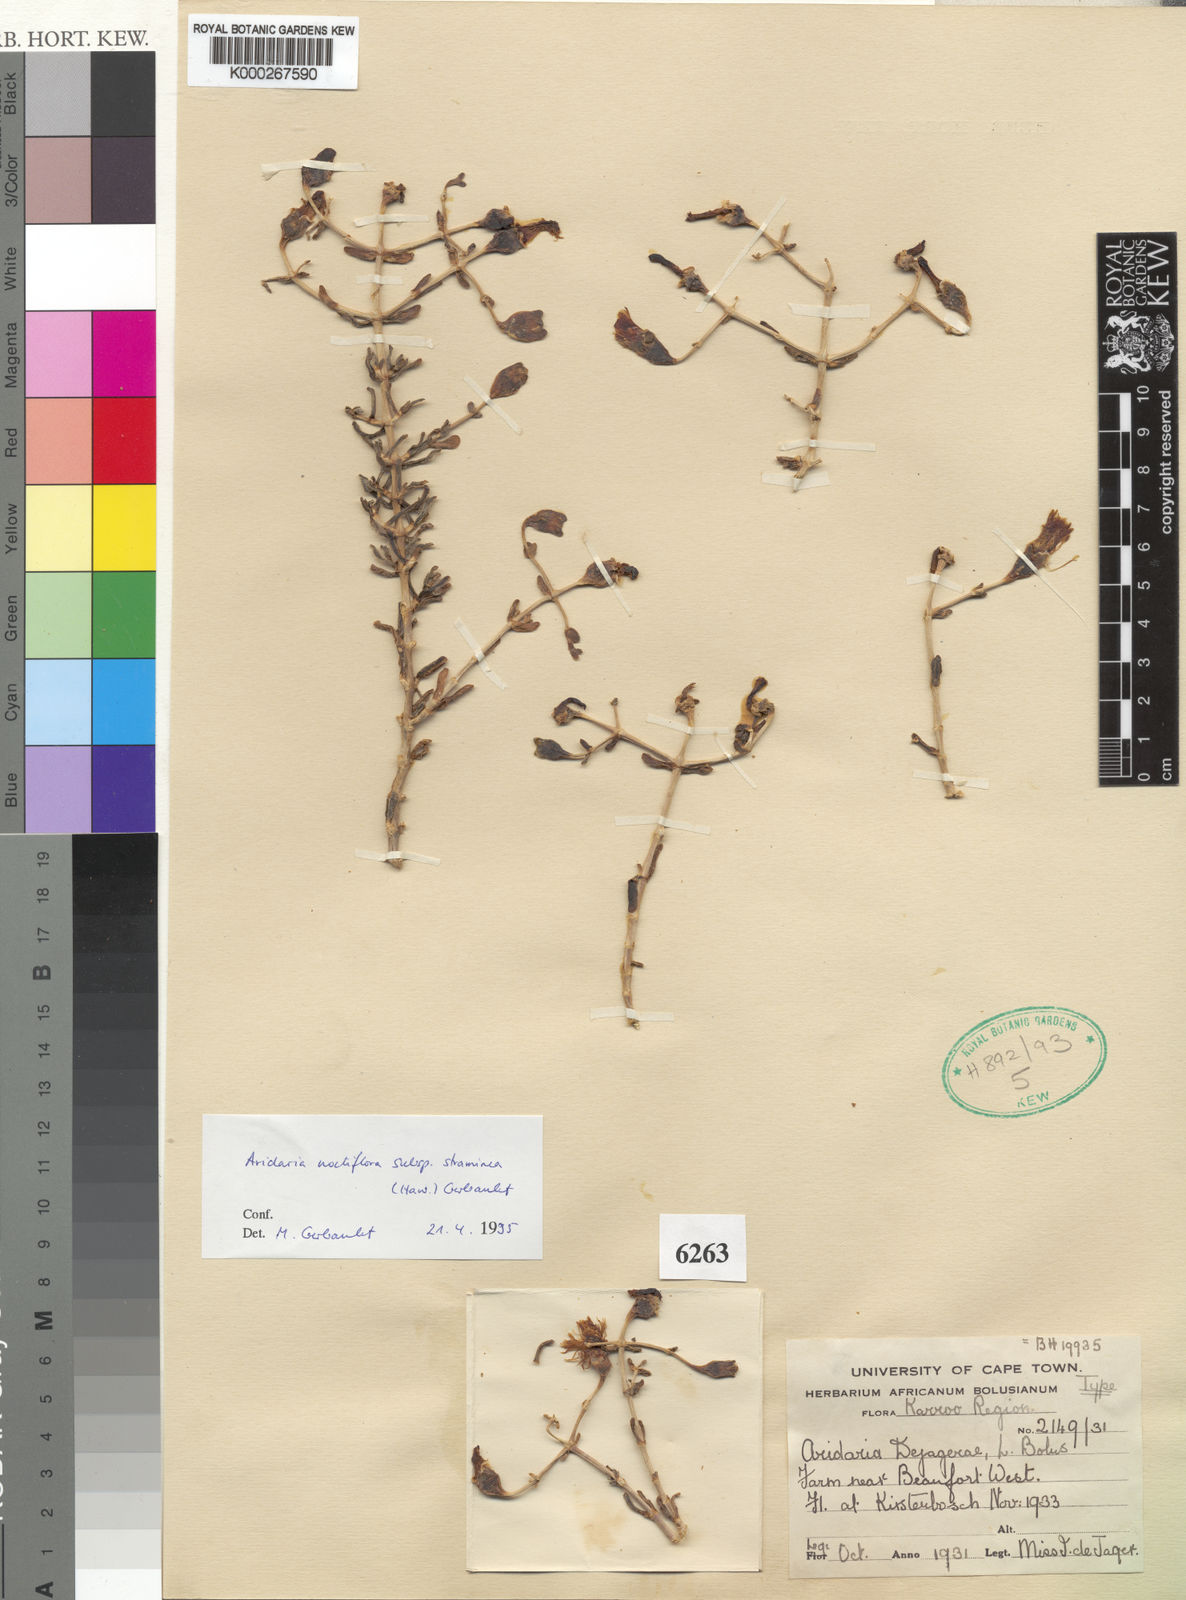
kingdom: Plantae
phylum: Tracheophyta
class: Magnoliopsida
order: Caryophyllales
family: Aizoaceae
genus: Mesembryanthemum
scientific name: Mesembryanthemum noctiflorum
